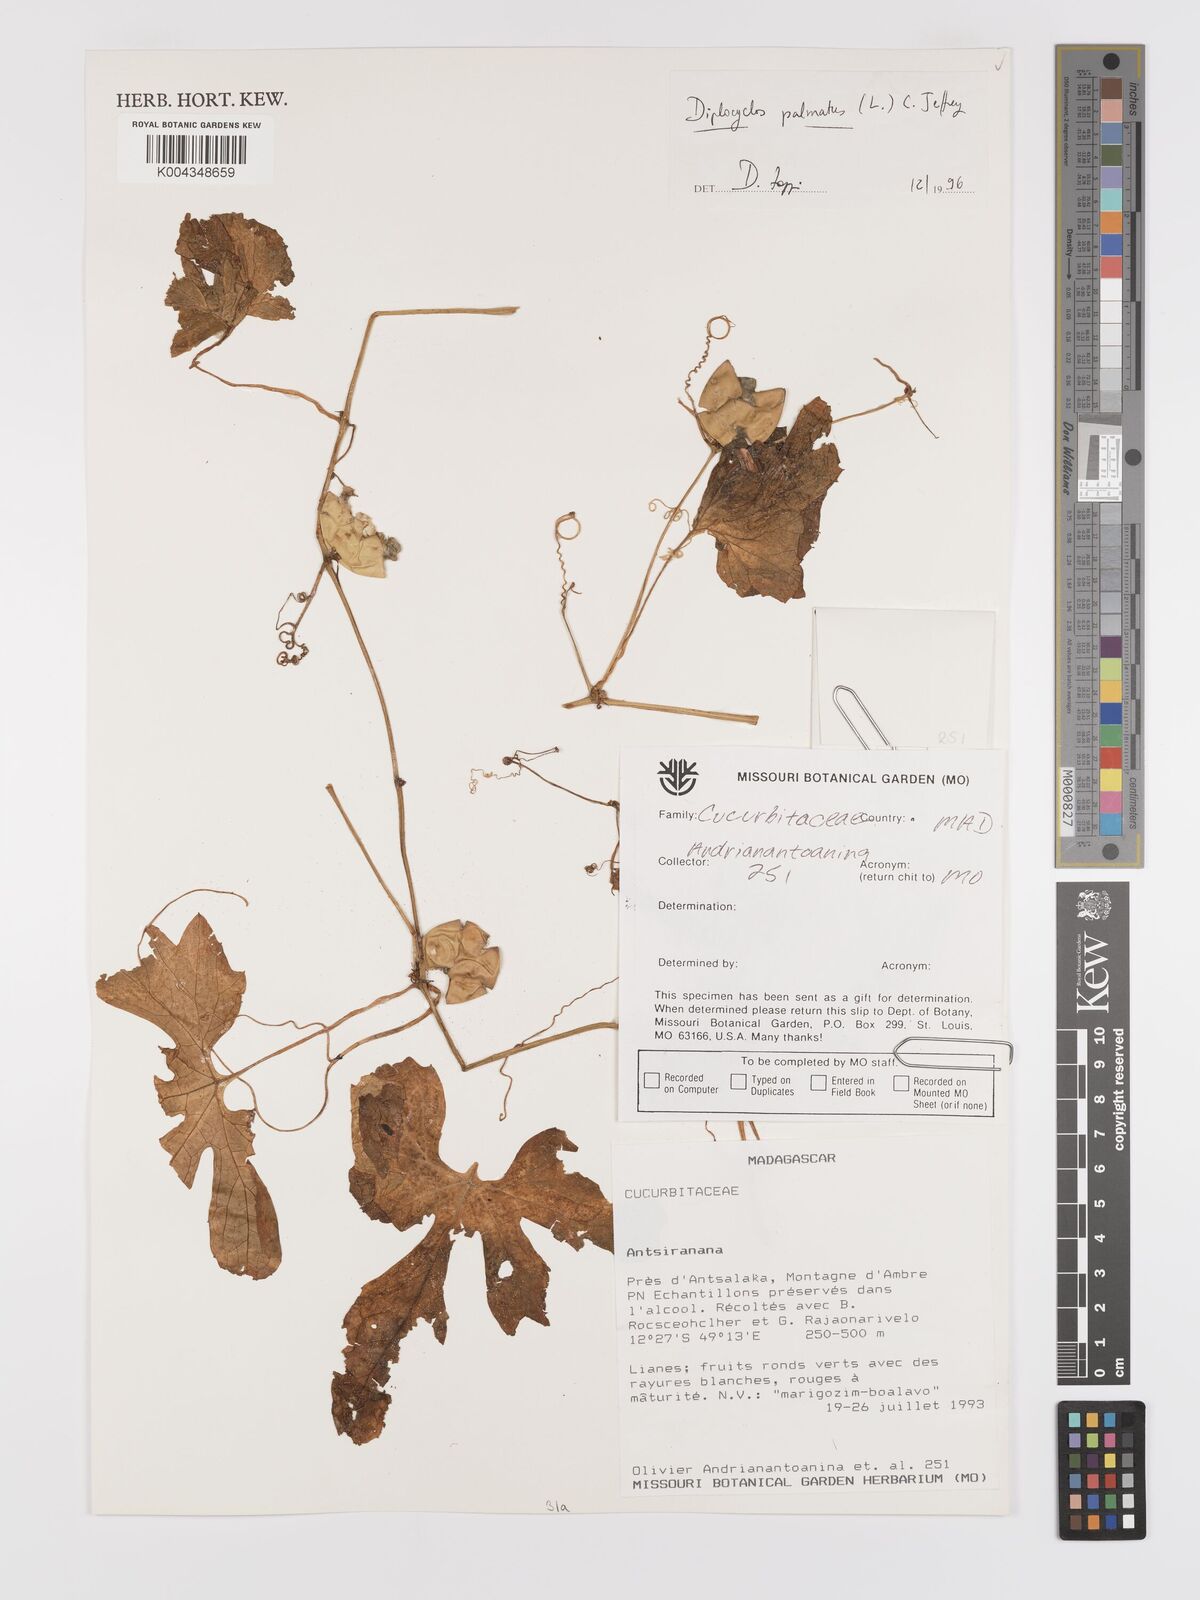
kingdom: Plantae
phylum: Tracheophyta
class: Magnoliopsida
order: Cucurbitales
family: Cucurbitaceae
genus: Diplocyclos
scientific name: Diplocyclos palmatus
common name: Striped-cucumber
